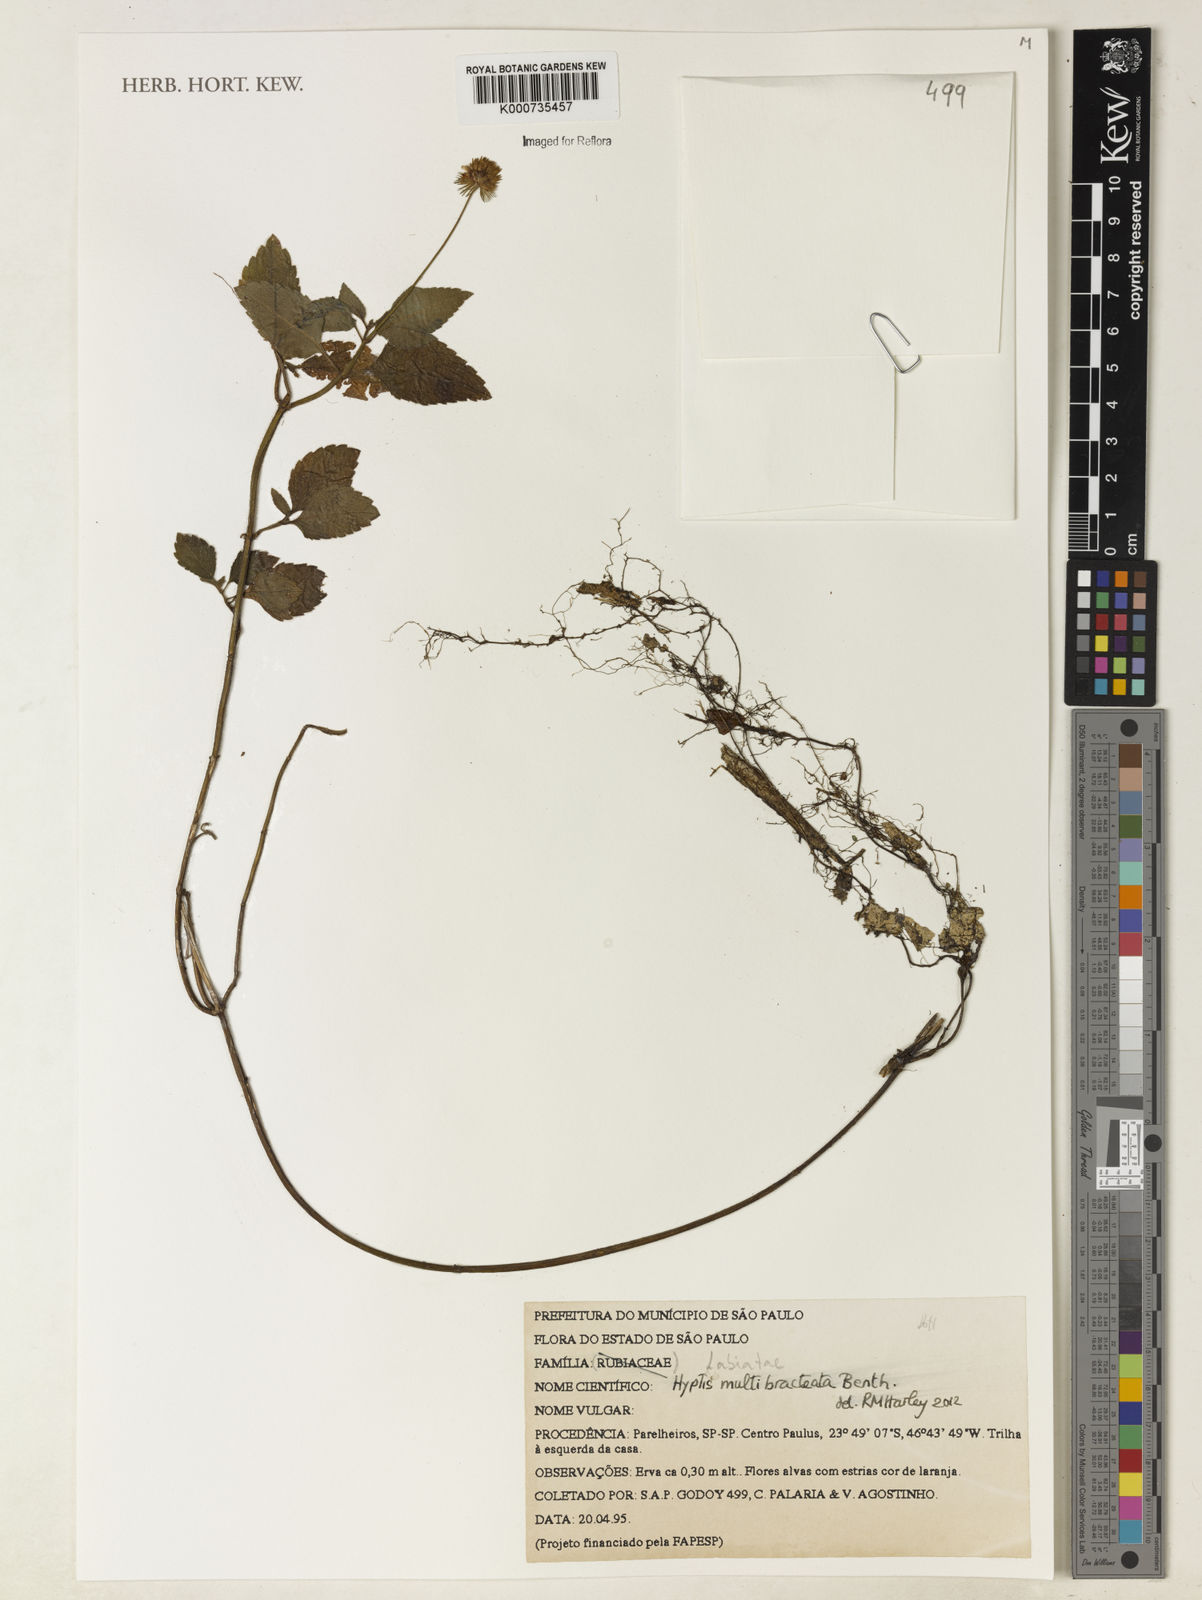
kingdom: Plantae
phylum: Tracheophyta
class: Magnoliopsida
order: Lamiales
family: Lamiaceae
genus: Hyptis
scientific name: Hyptis multibracteata
